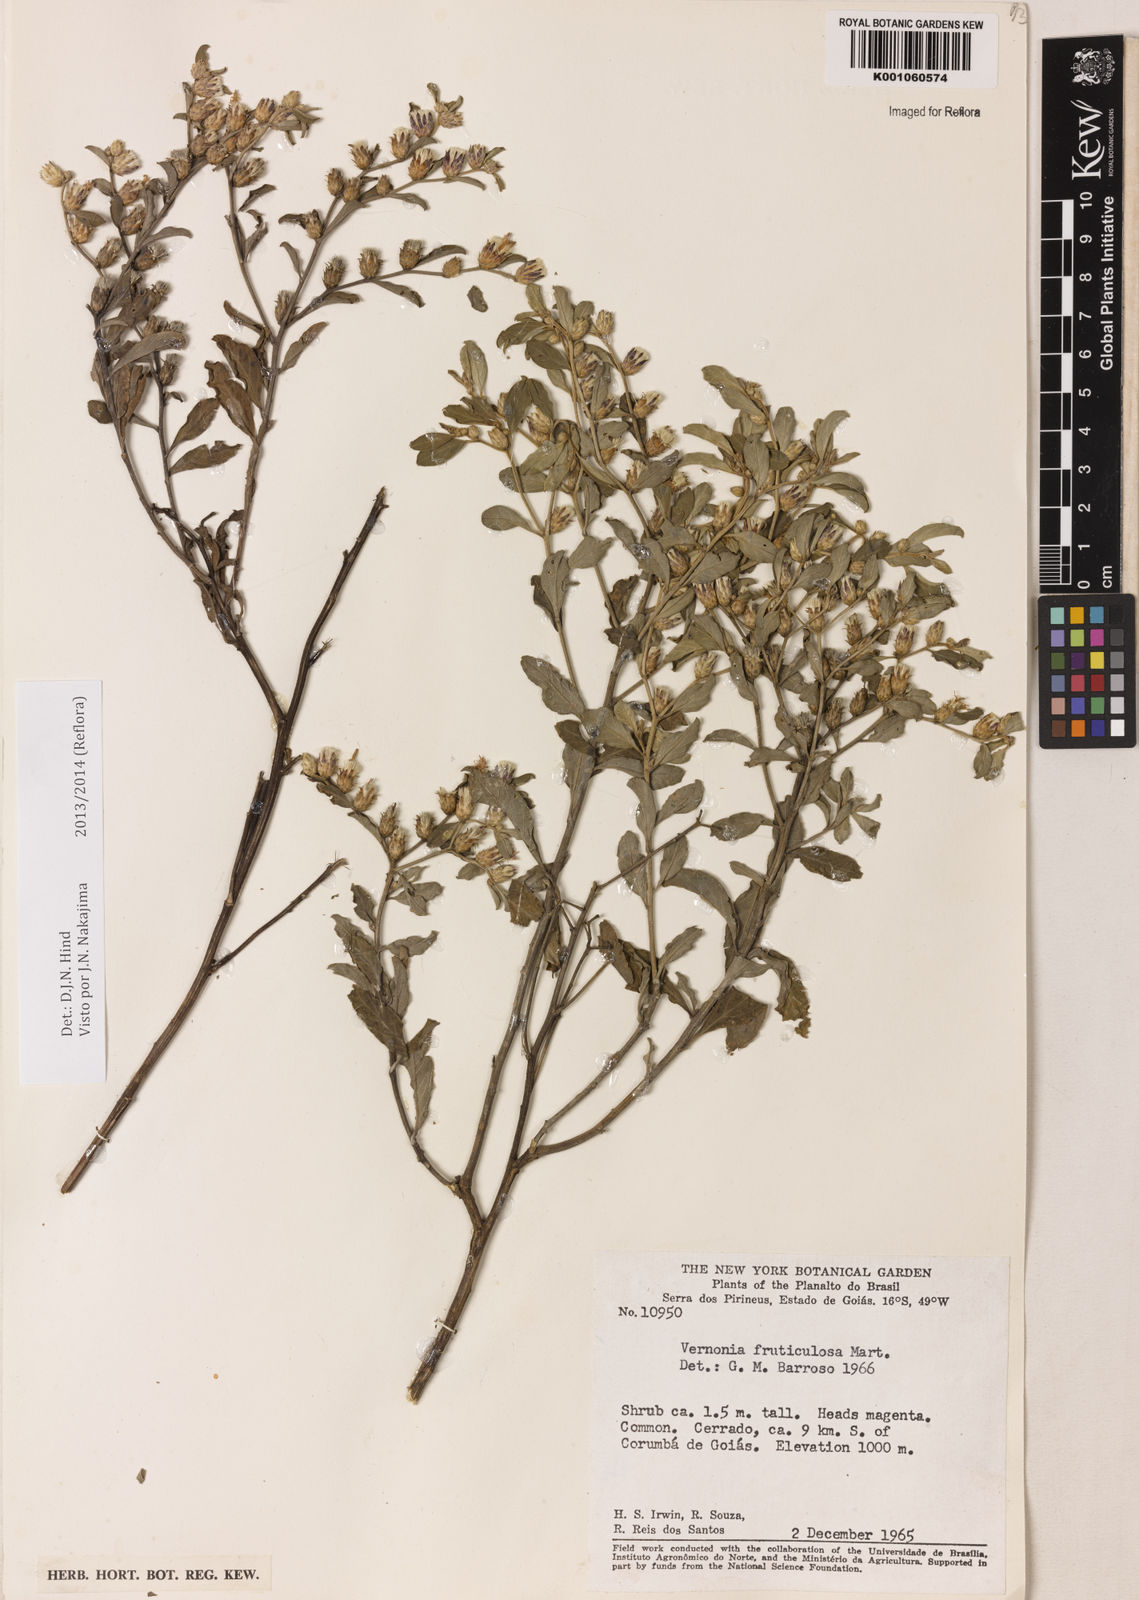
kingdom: Plantae
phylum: Tracheophyta
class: Magnoliopsida
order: Asterales
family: Asteraceae
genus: Lepidaploa
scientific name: Lepidaploa rufogrisea
